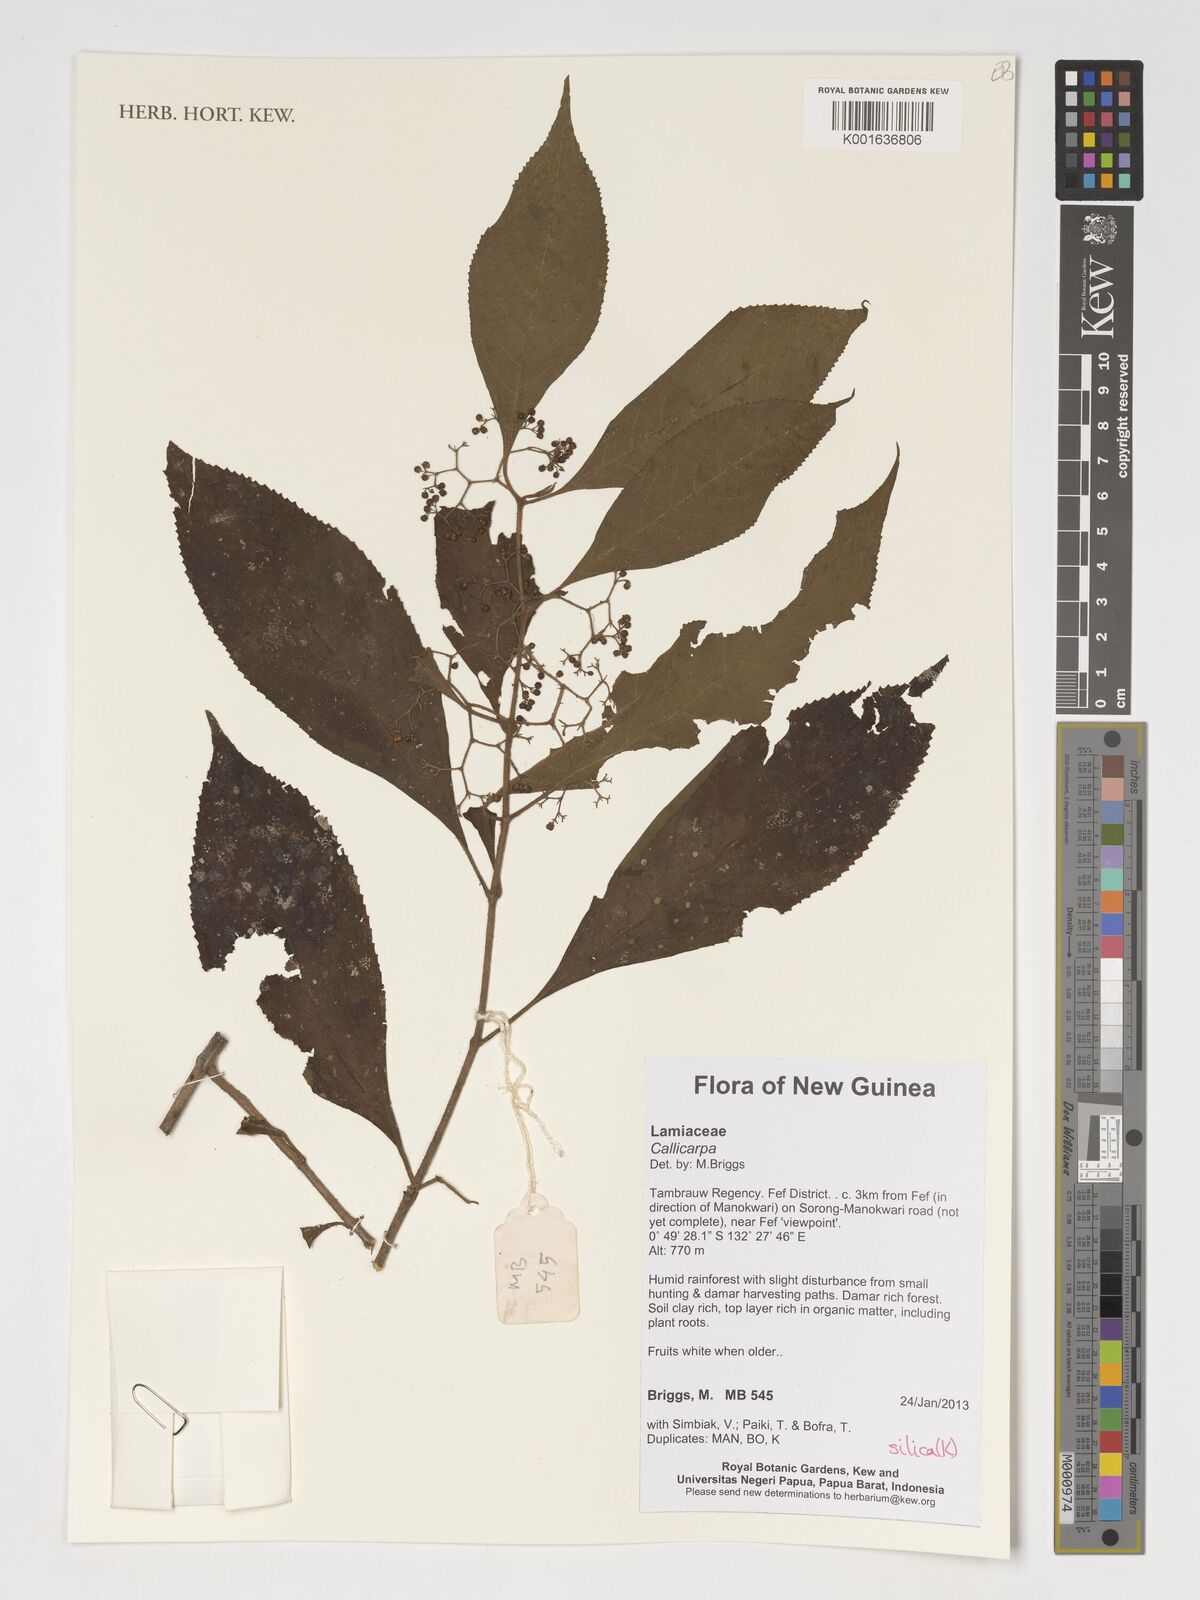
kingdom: Plantae
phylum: Tracheophyta
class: Magnoliopsida
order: Lamiales
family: Lamiaceae
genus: Callicarpa
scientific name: Callicarpa
